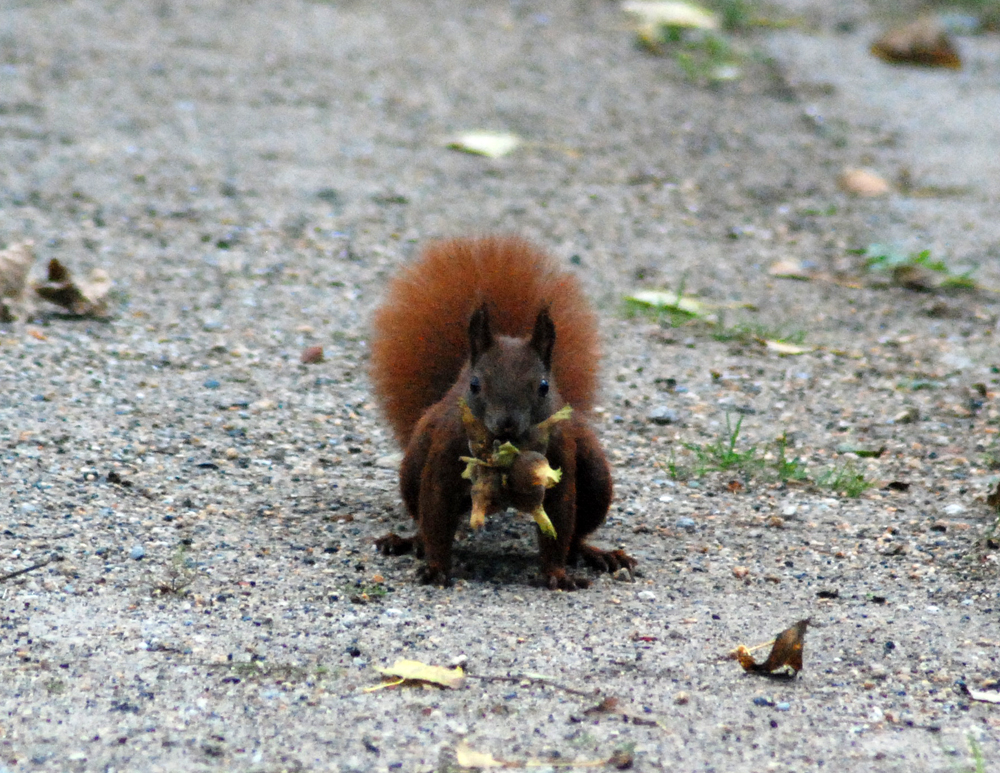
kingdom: Animalia
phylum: Chordata
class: Mammalia
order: Rodentia
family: Sciuridae
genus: Sciurus
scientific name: Sciurus vulgaris
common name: Eurasian red squirrel
